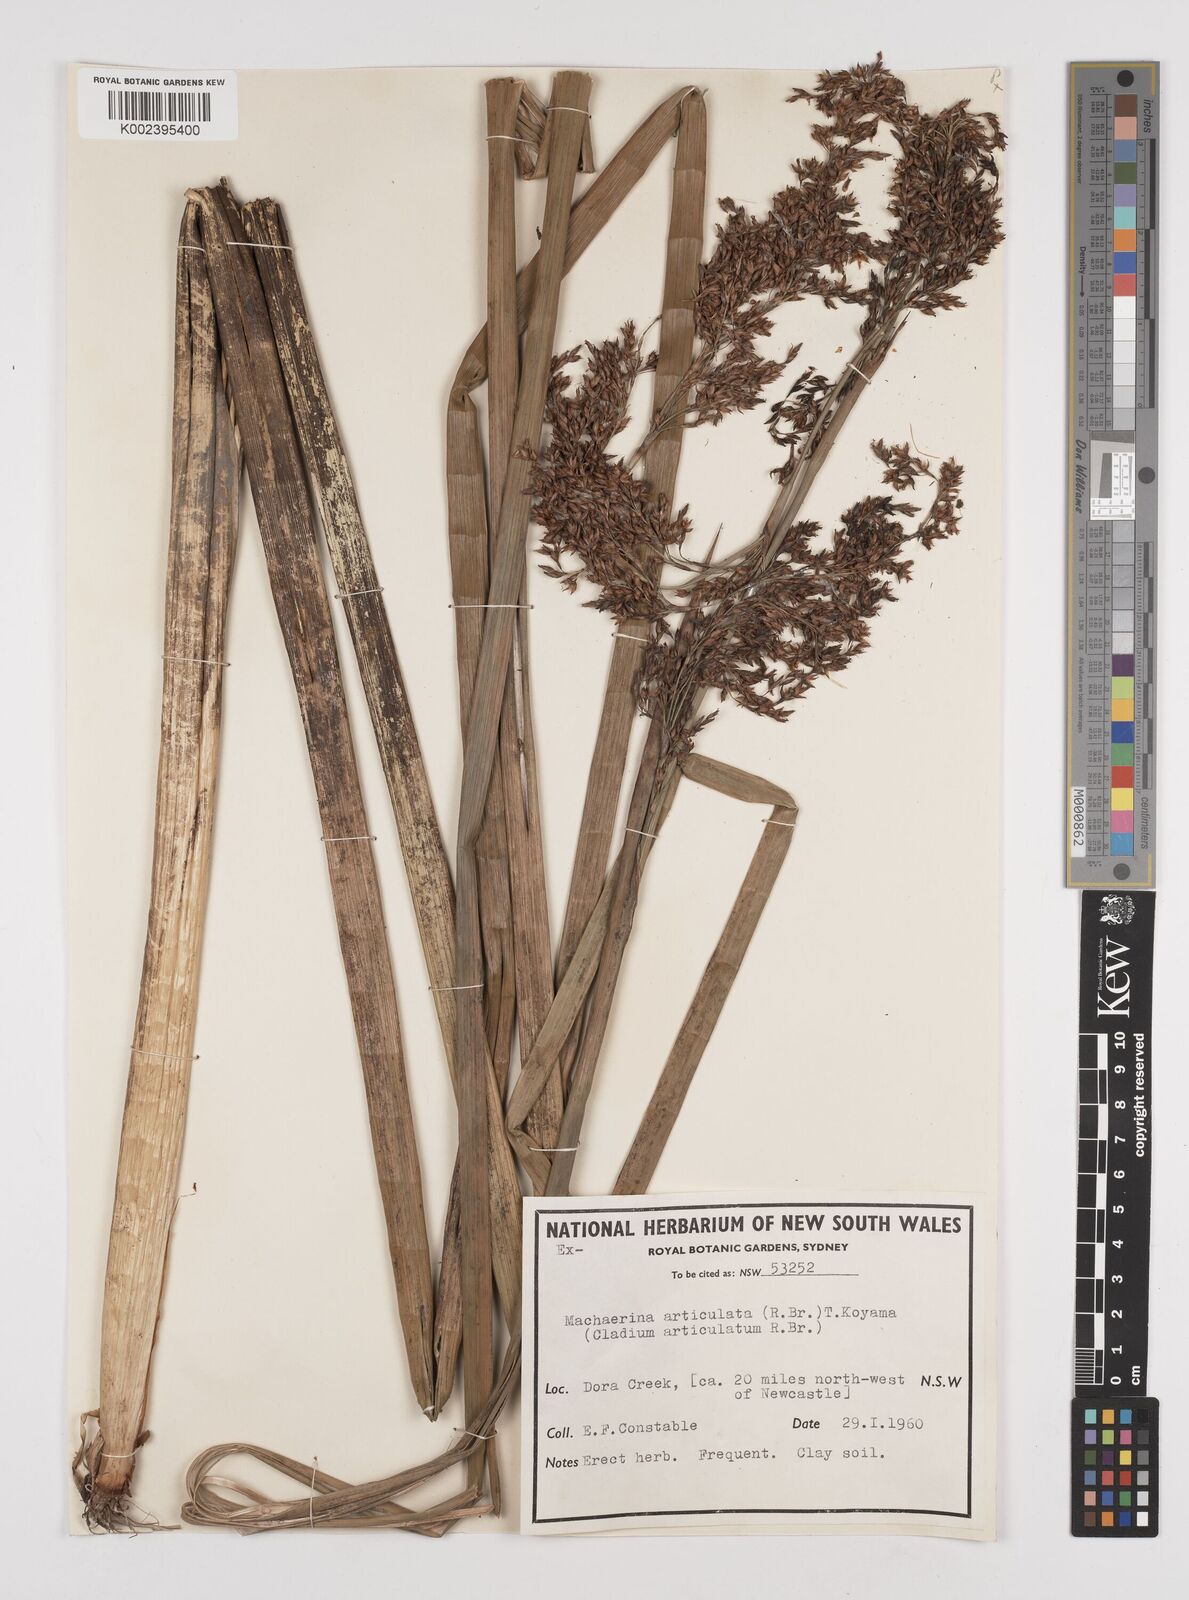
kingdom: Plantae
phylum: Tracheophyta
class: Liliopsida
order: Poales
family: Cyperaceae
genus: Machaerina
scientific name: Machaerina articulata
